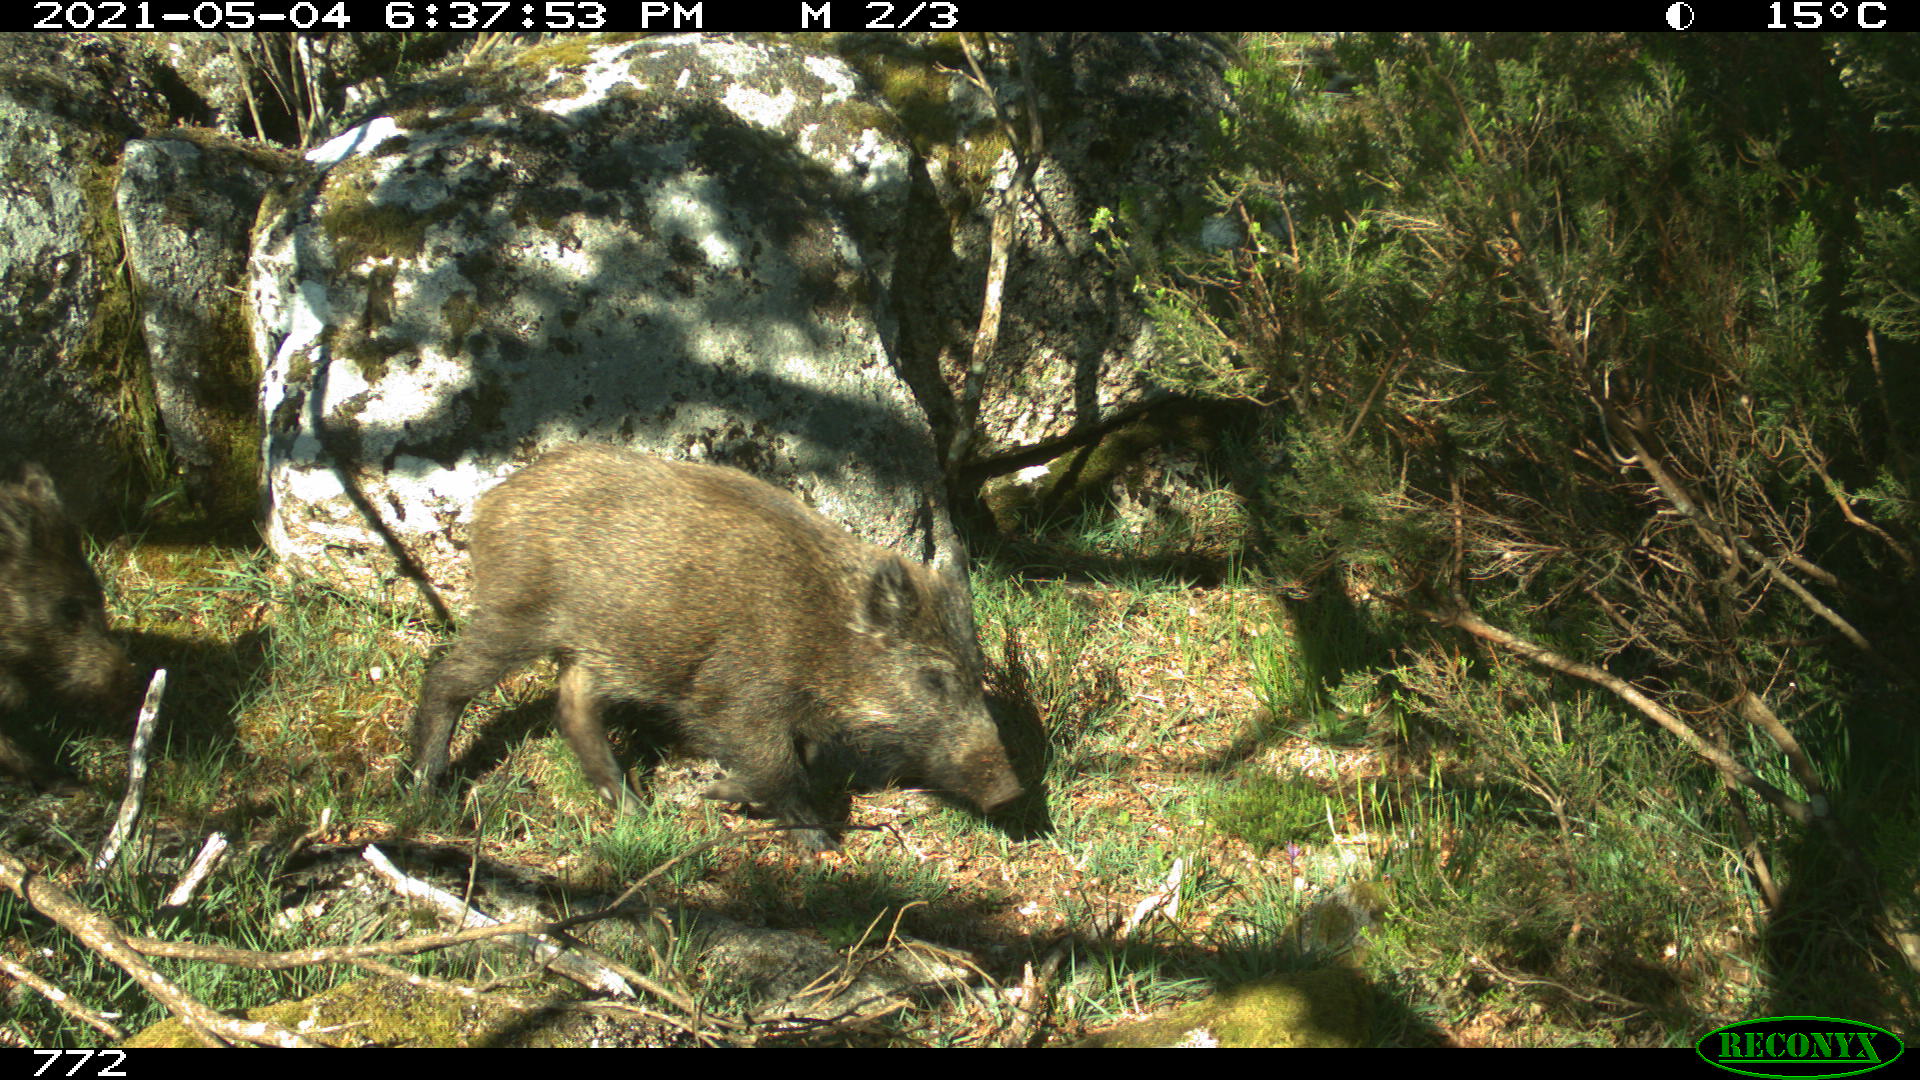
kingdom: Animalia
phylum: Chordata
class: Mammalia
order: Artiodactyla
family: Suidae
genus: Sus
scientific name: Sus scrofa
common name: Wild boar
